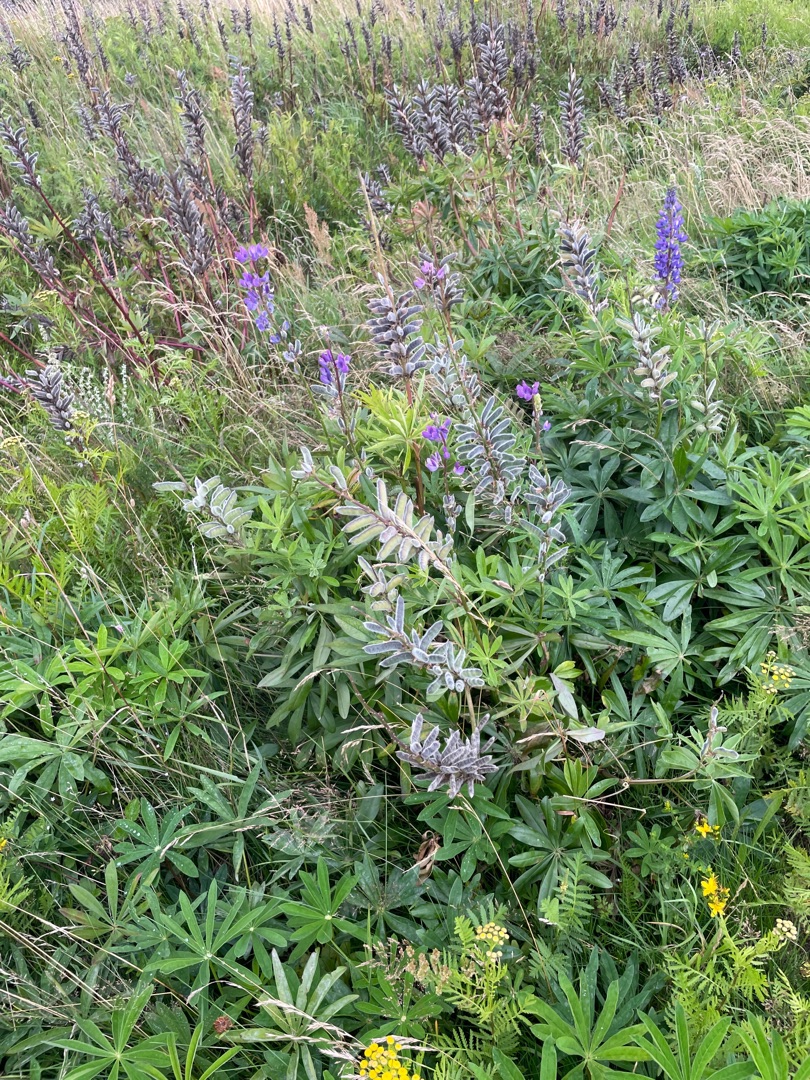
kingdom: Plantae
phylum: Tracheophyta
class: Magnoliopsida
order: Fabales
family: Fabaceae
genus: Lupinus
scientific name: Lupinus polyphyllus
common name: Mangebladet lupin
